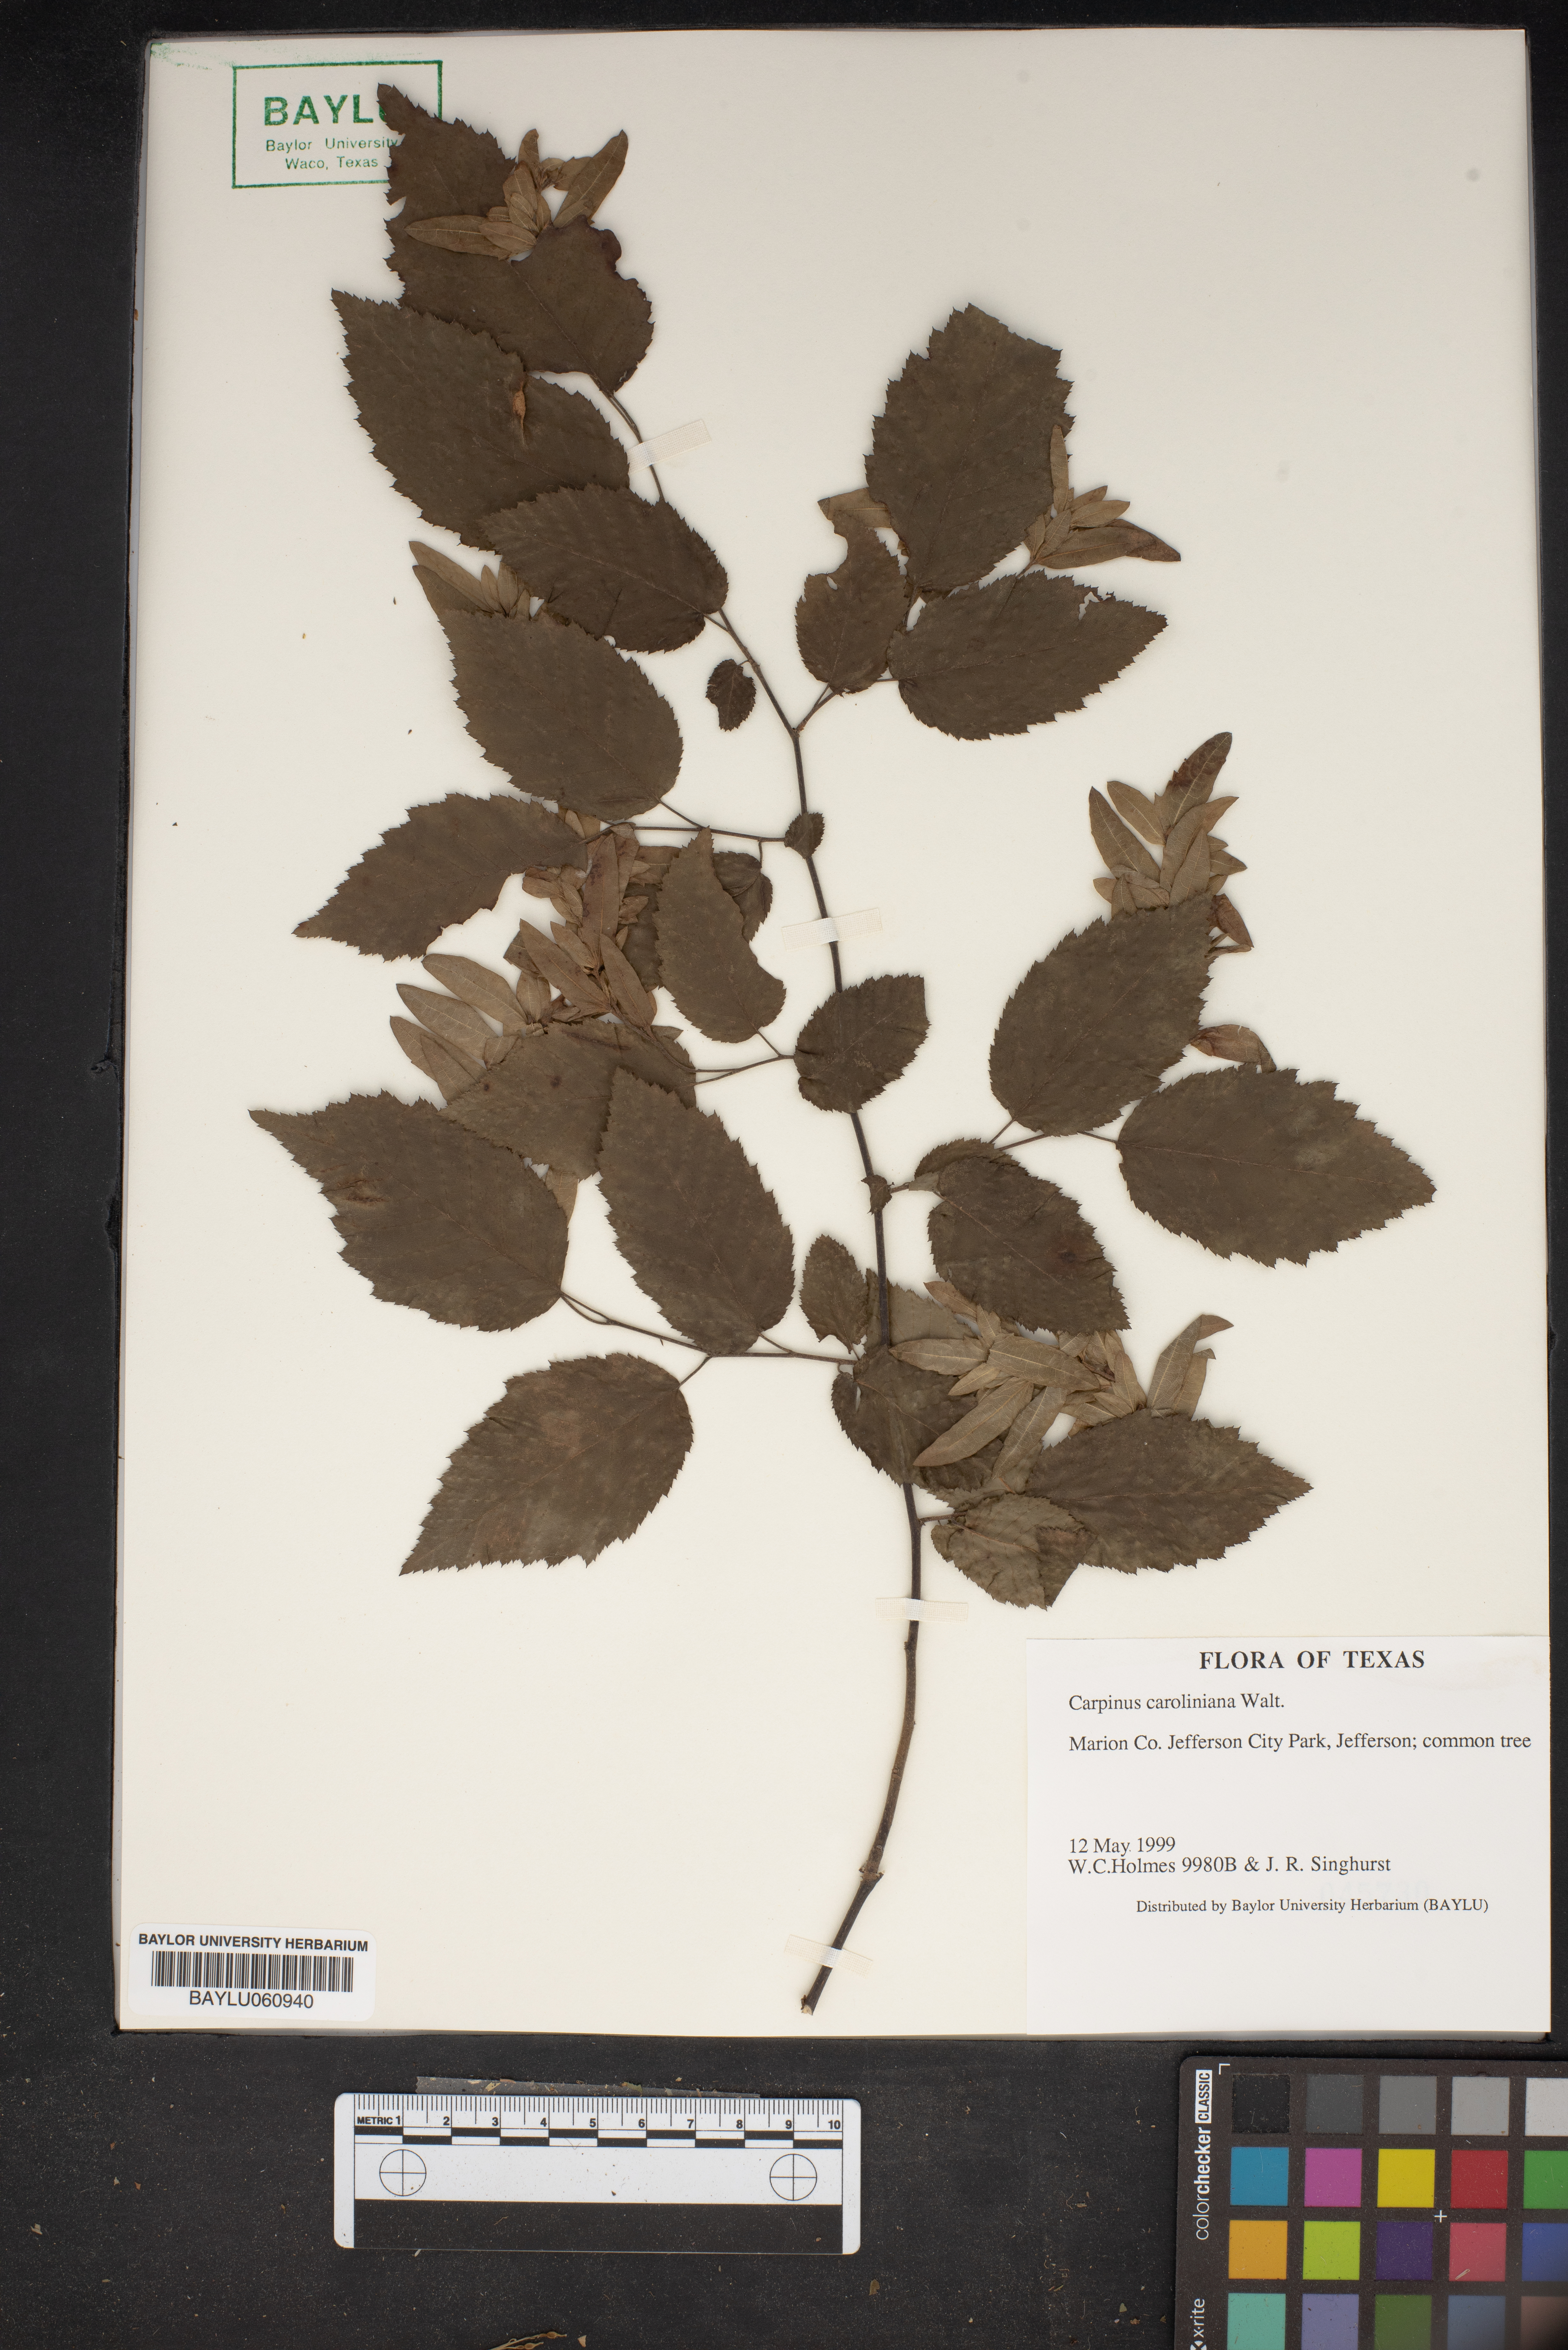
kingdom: Plantae
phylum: Tracheophyta
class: Magnoliopsida
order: Fagales
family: Betulaceae
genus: Carpinus
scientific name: Carpinus caroliniana
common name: American hornbeam
